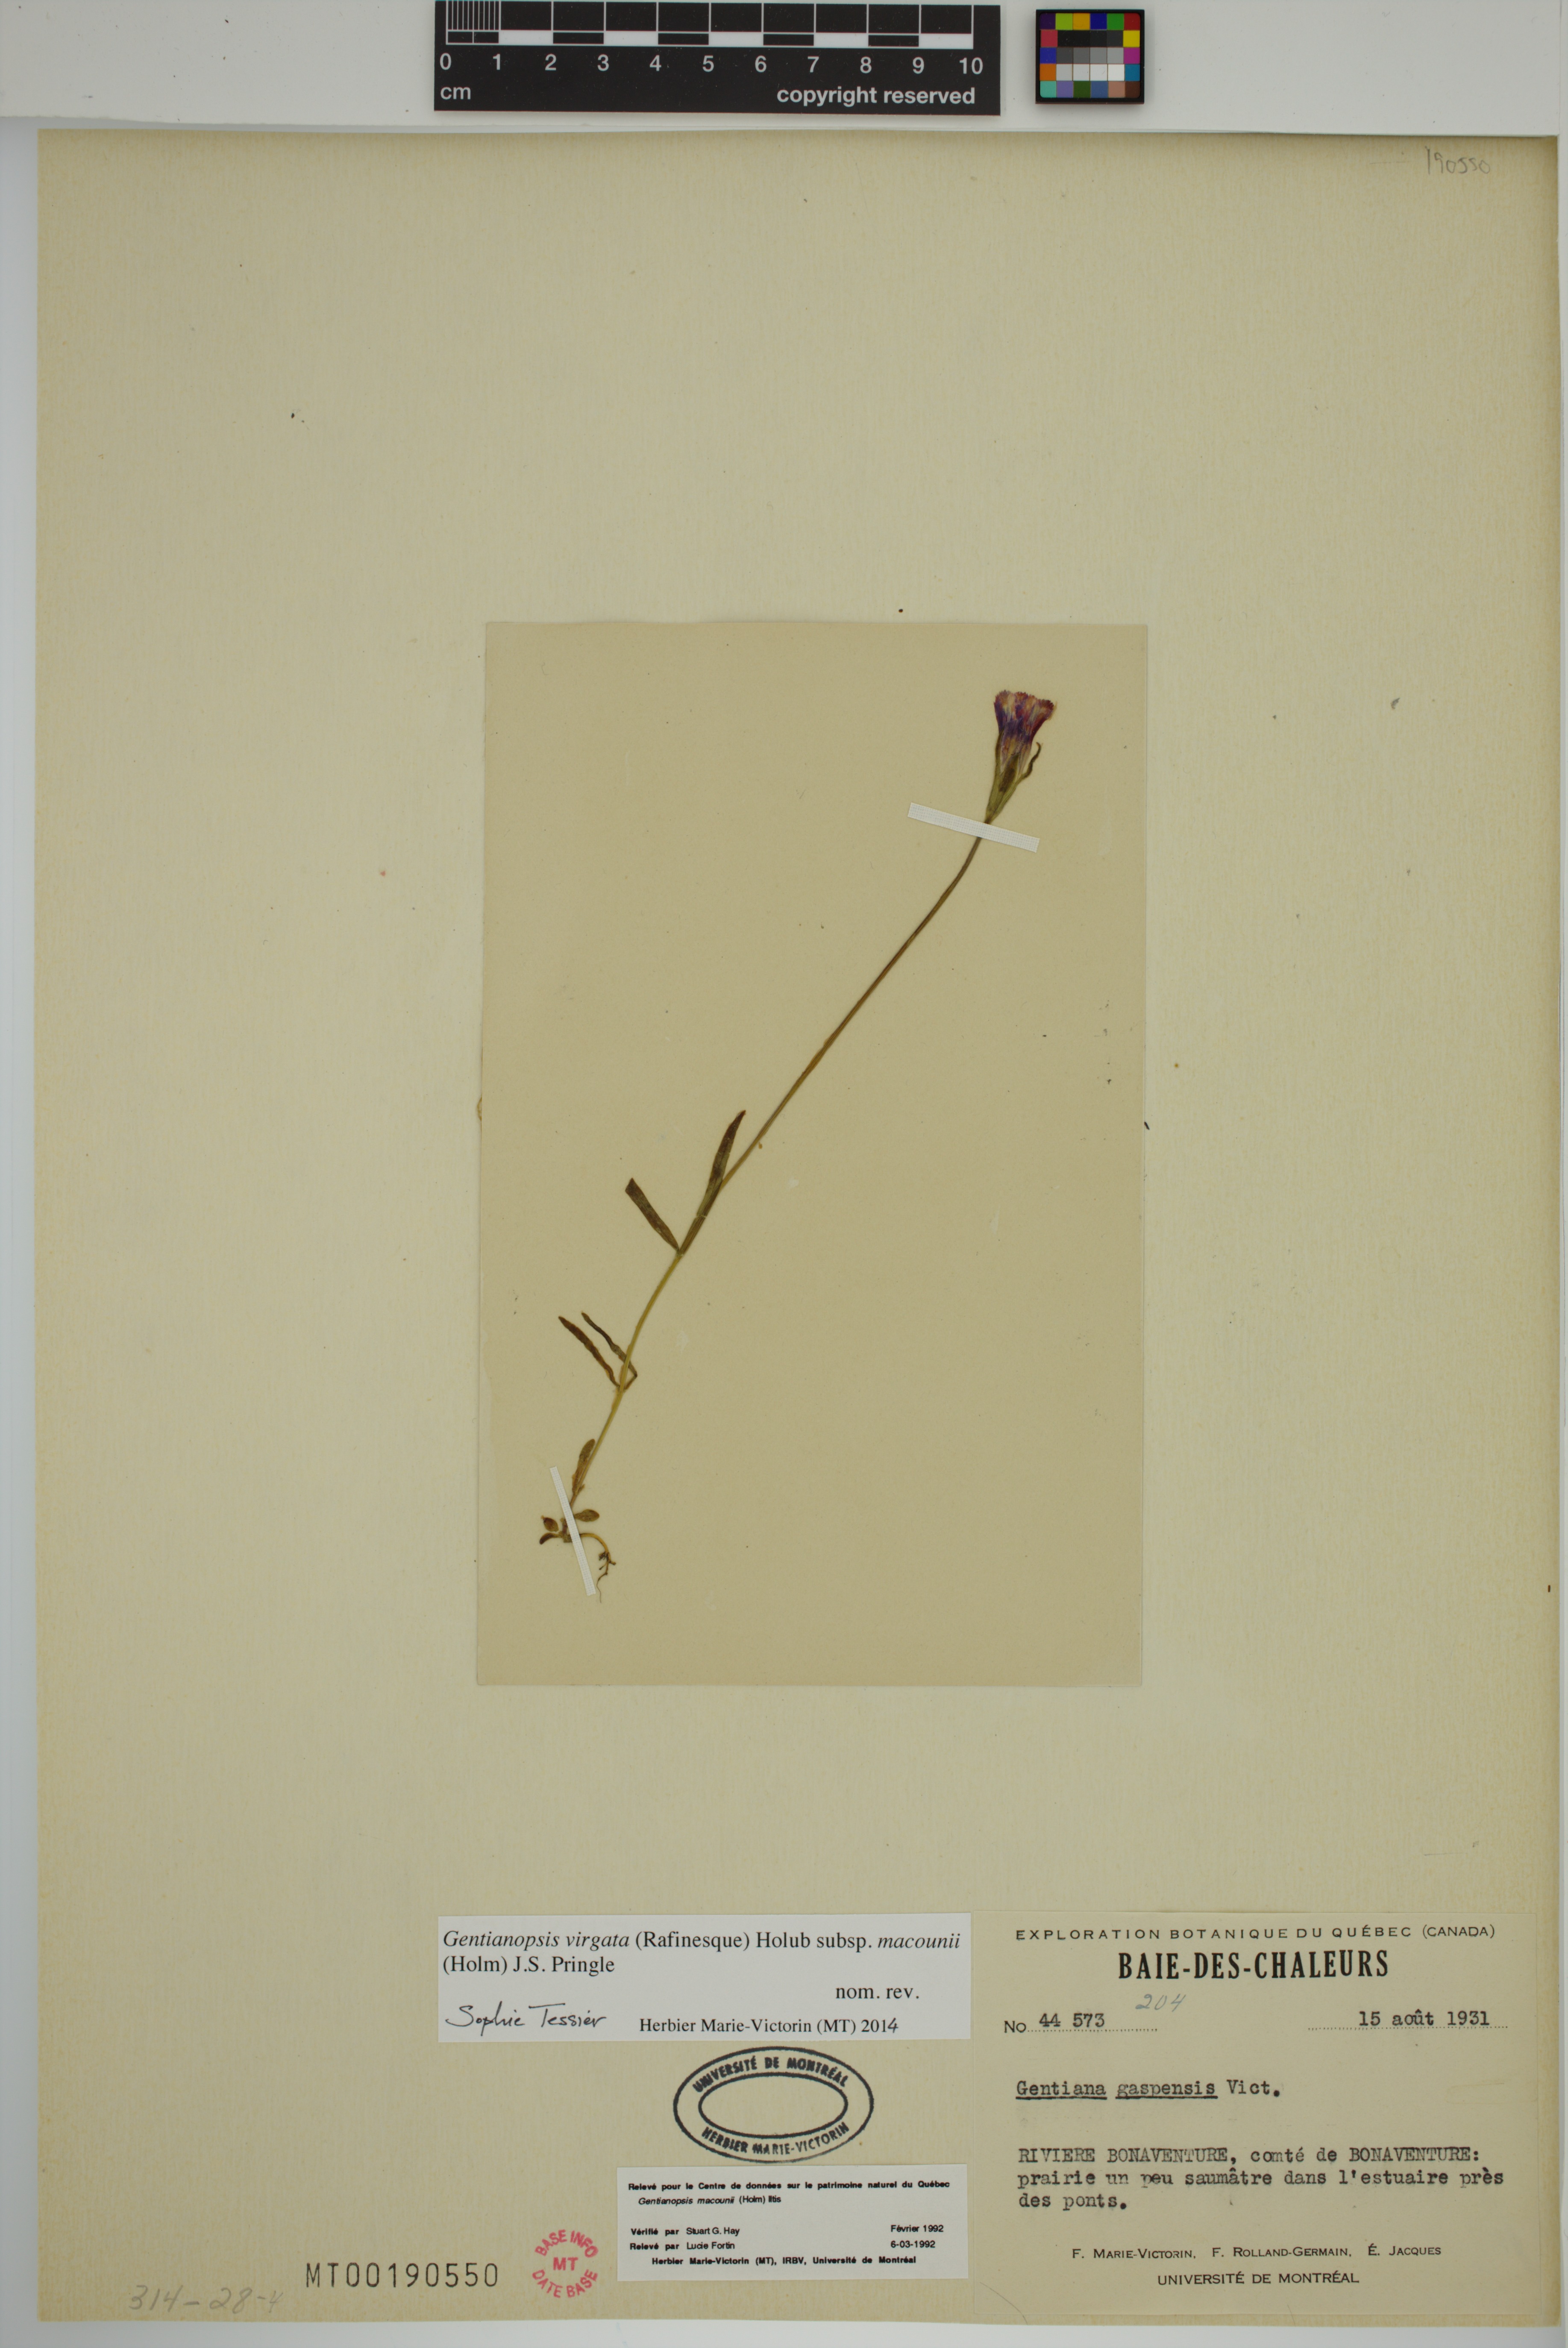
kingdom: Plantae
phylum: Tracheophyta
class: Magnoliopsida
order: Gentianales
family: Gentianaceae
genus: Gentianopsis
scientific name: Gentianopsis macounii
